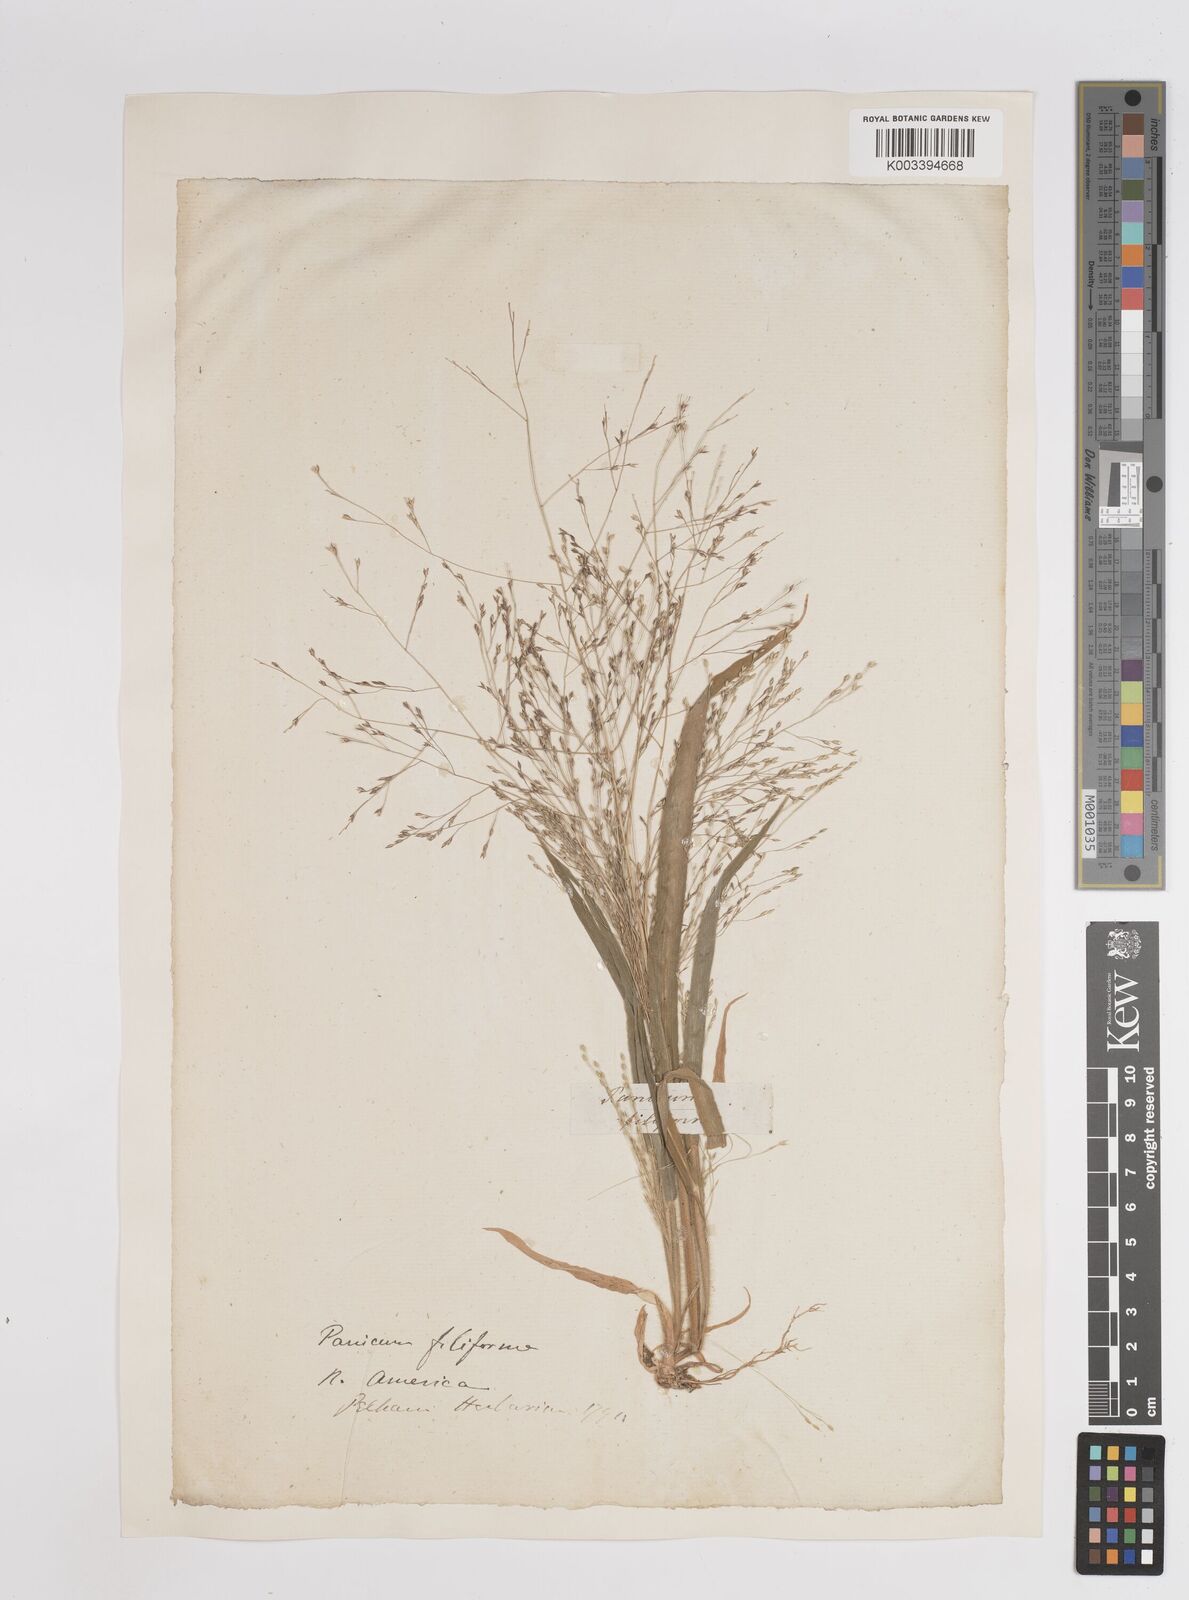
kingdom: Plantae
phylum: Tracheophyta
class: Liliopsida
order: Poales
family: Poaceae
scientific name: Poaceae
